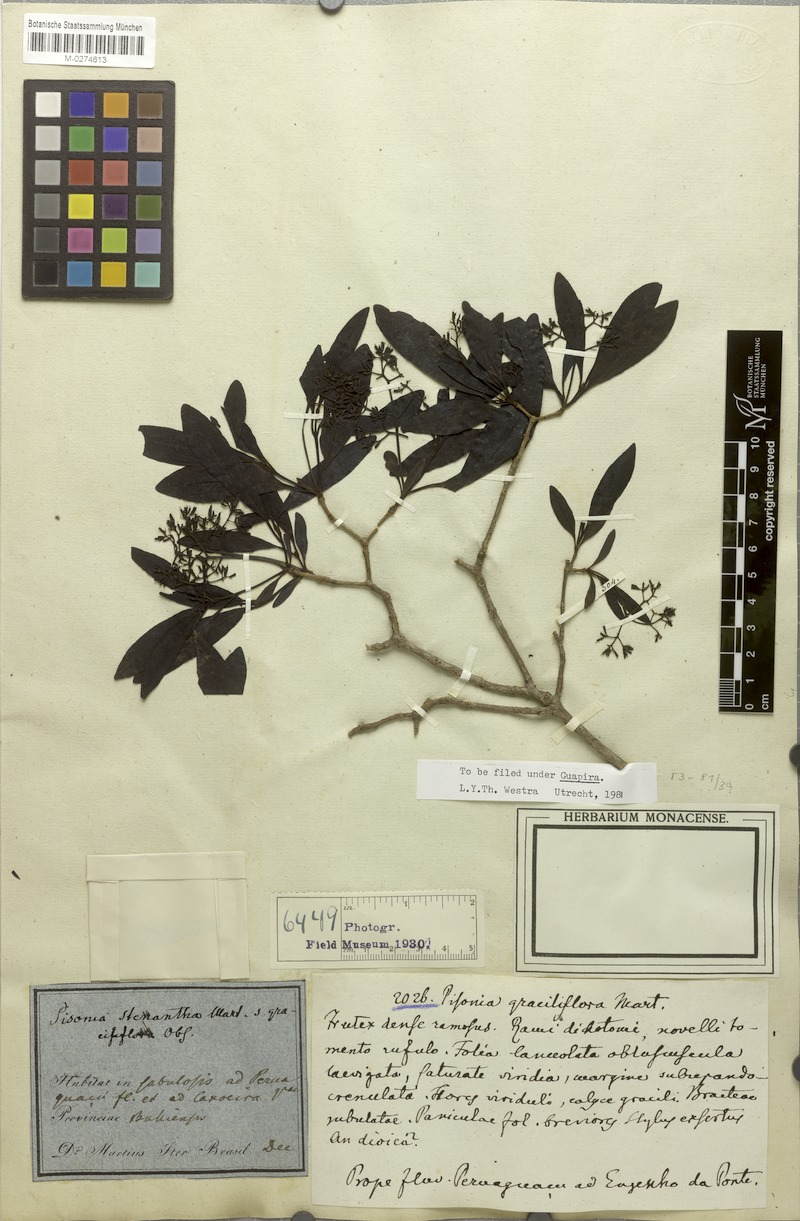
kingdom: Plantae
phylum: Tracheophyta
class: Magnoliopsida
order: Caryophyllales
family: Nyctaginaceae
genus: Guapira
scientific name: Guapira graciliflora
